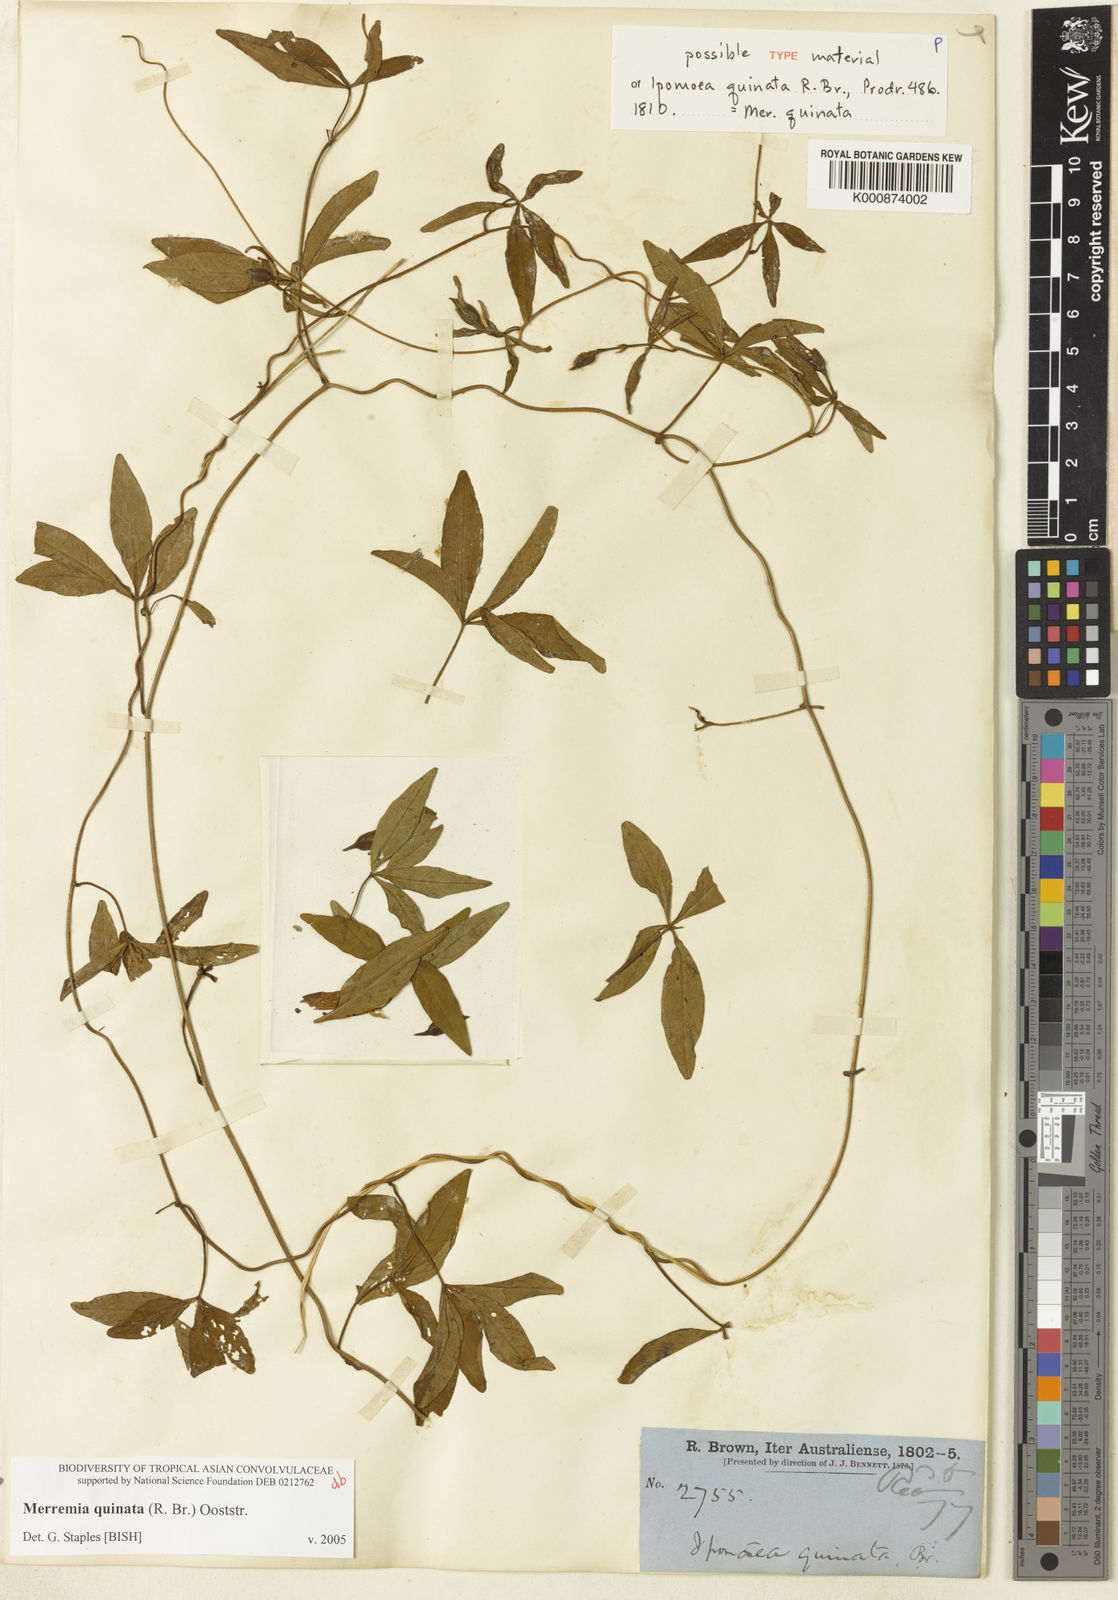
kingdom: Plantae
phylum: Tracheophyta
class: Magnoliopsida
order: Solanales
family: Convolvulaceae
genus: Distimake
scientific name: Distimake quinatus
